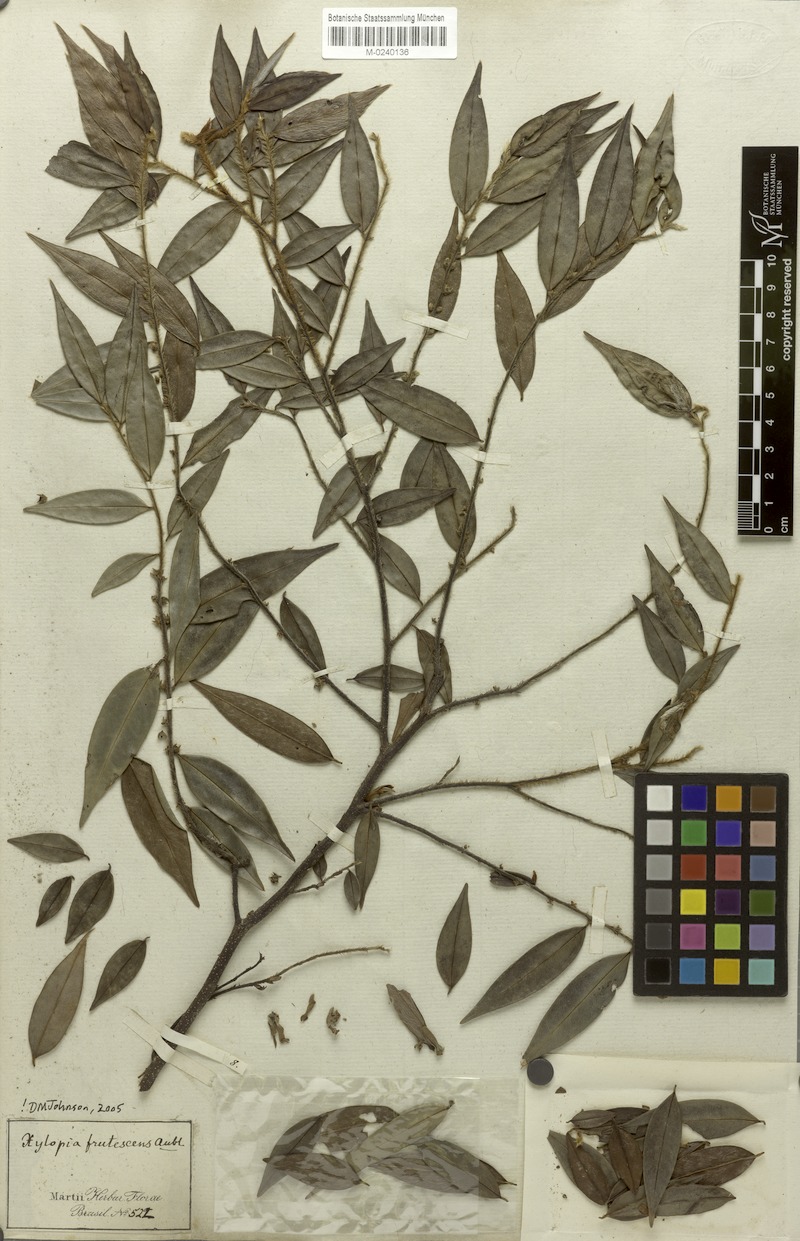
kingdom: Plantae
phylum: Tracheophyta
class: Magnoliopsida
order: Magnoliales
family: Annonaceae
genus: Xylopia
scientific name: Xylopia frutescens
